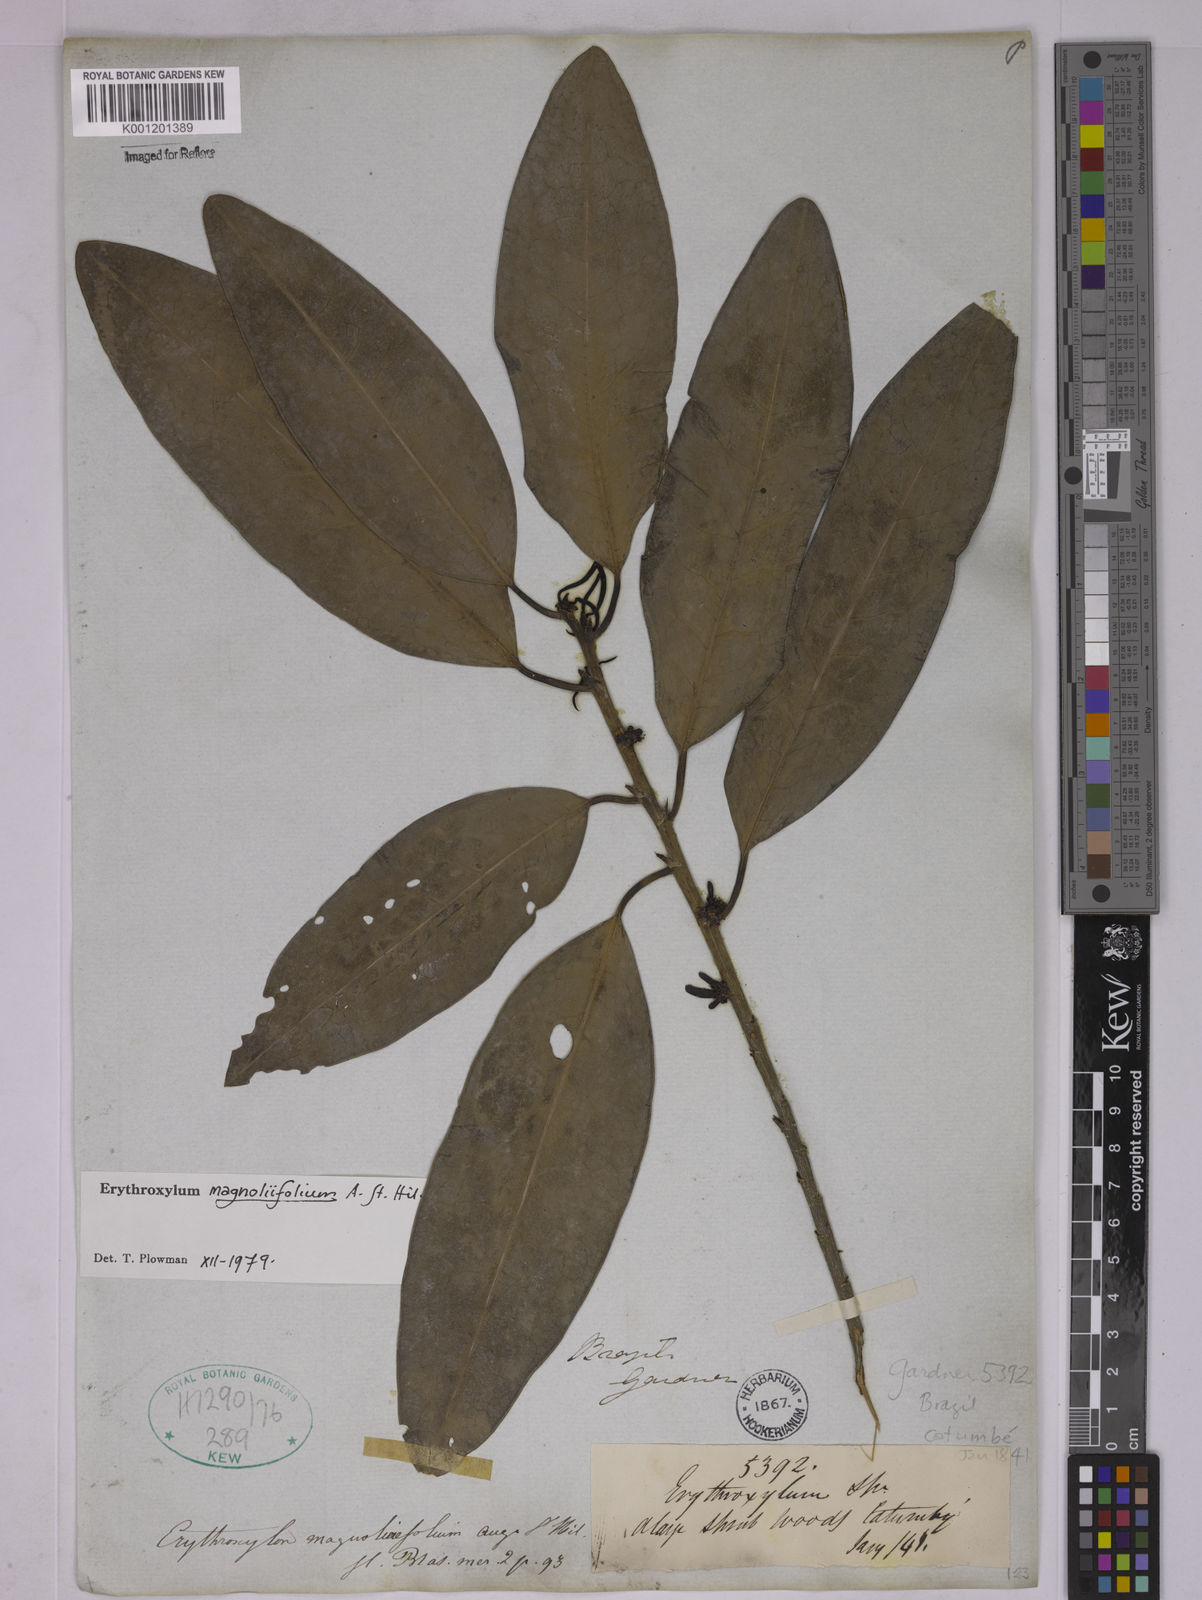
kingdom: Plantae
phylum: Tracheophyta
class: Magnoliopsida
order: Malpighiales
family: Erythroxylaceae
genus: Erythroxylum
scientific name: Erythroxylum magnoliifolium
